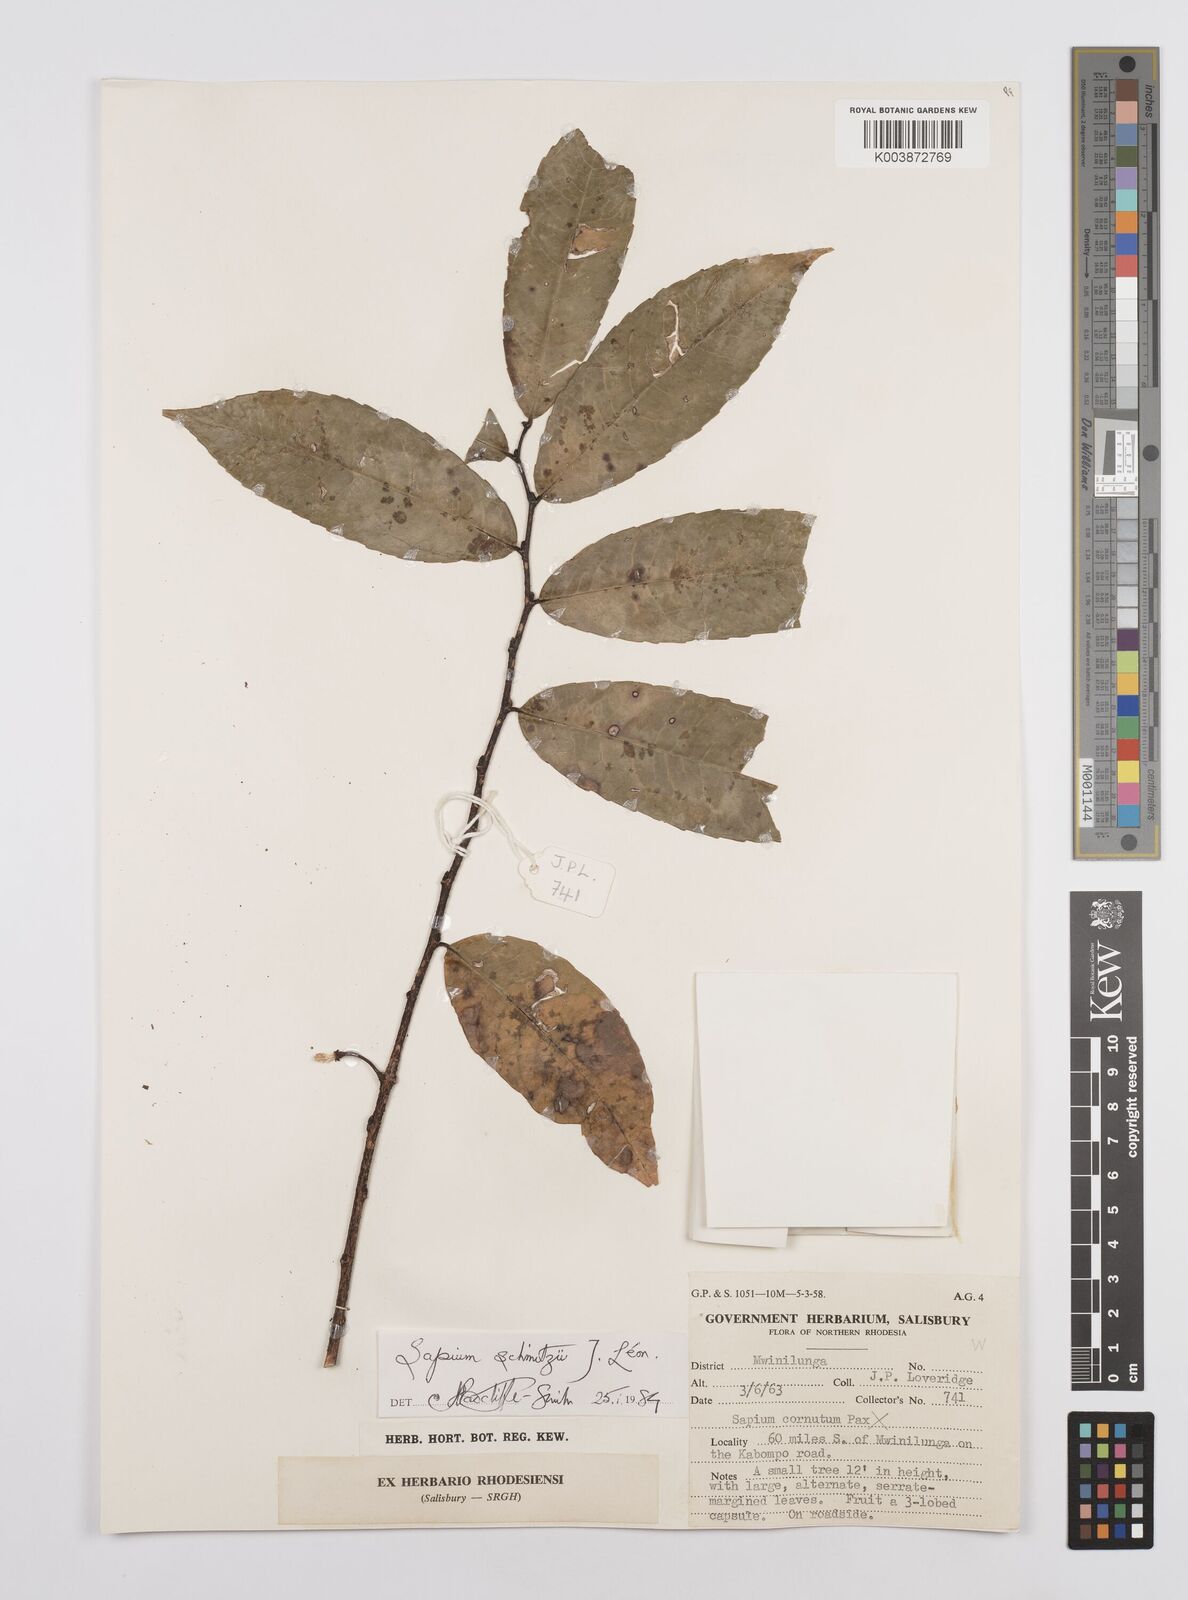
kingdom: Plantae
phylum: Tracheophyta
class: Magnoliopsida
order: Malpighiales
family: Euphorbiaceae
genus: Sclerocroton
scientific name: Sclerocroton schmitzii
